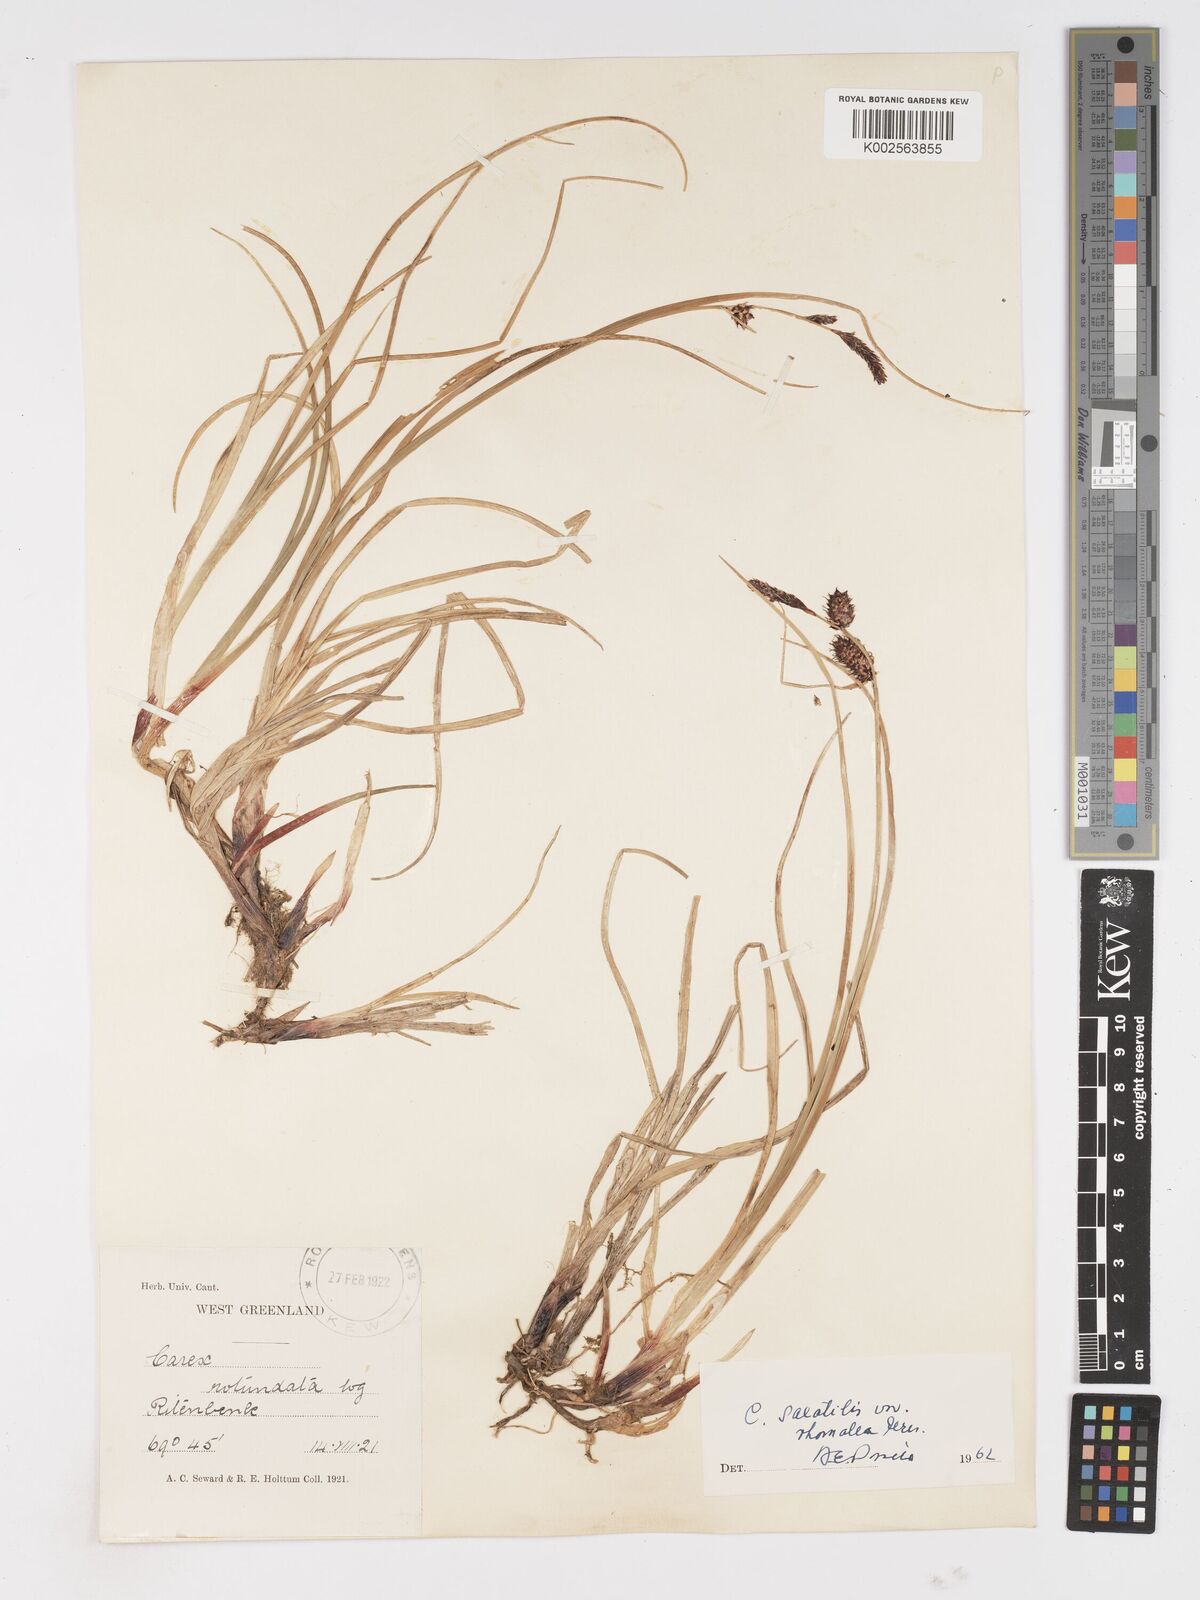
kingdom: Plantae
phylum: Tracheophyta
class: Liliopsida
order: Poales
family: Cyperaceae
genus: Carex
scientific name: Carex rotundata
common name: Round-fruited sedge
